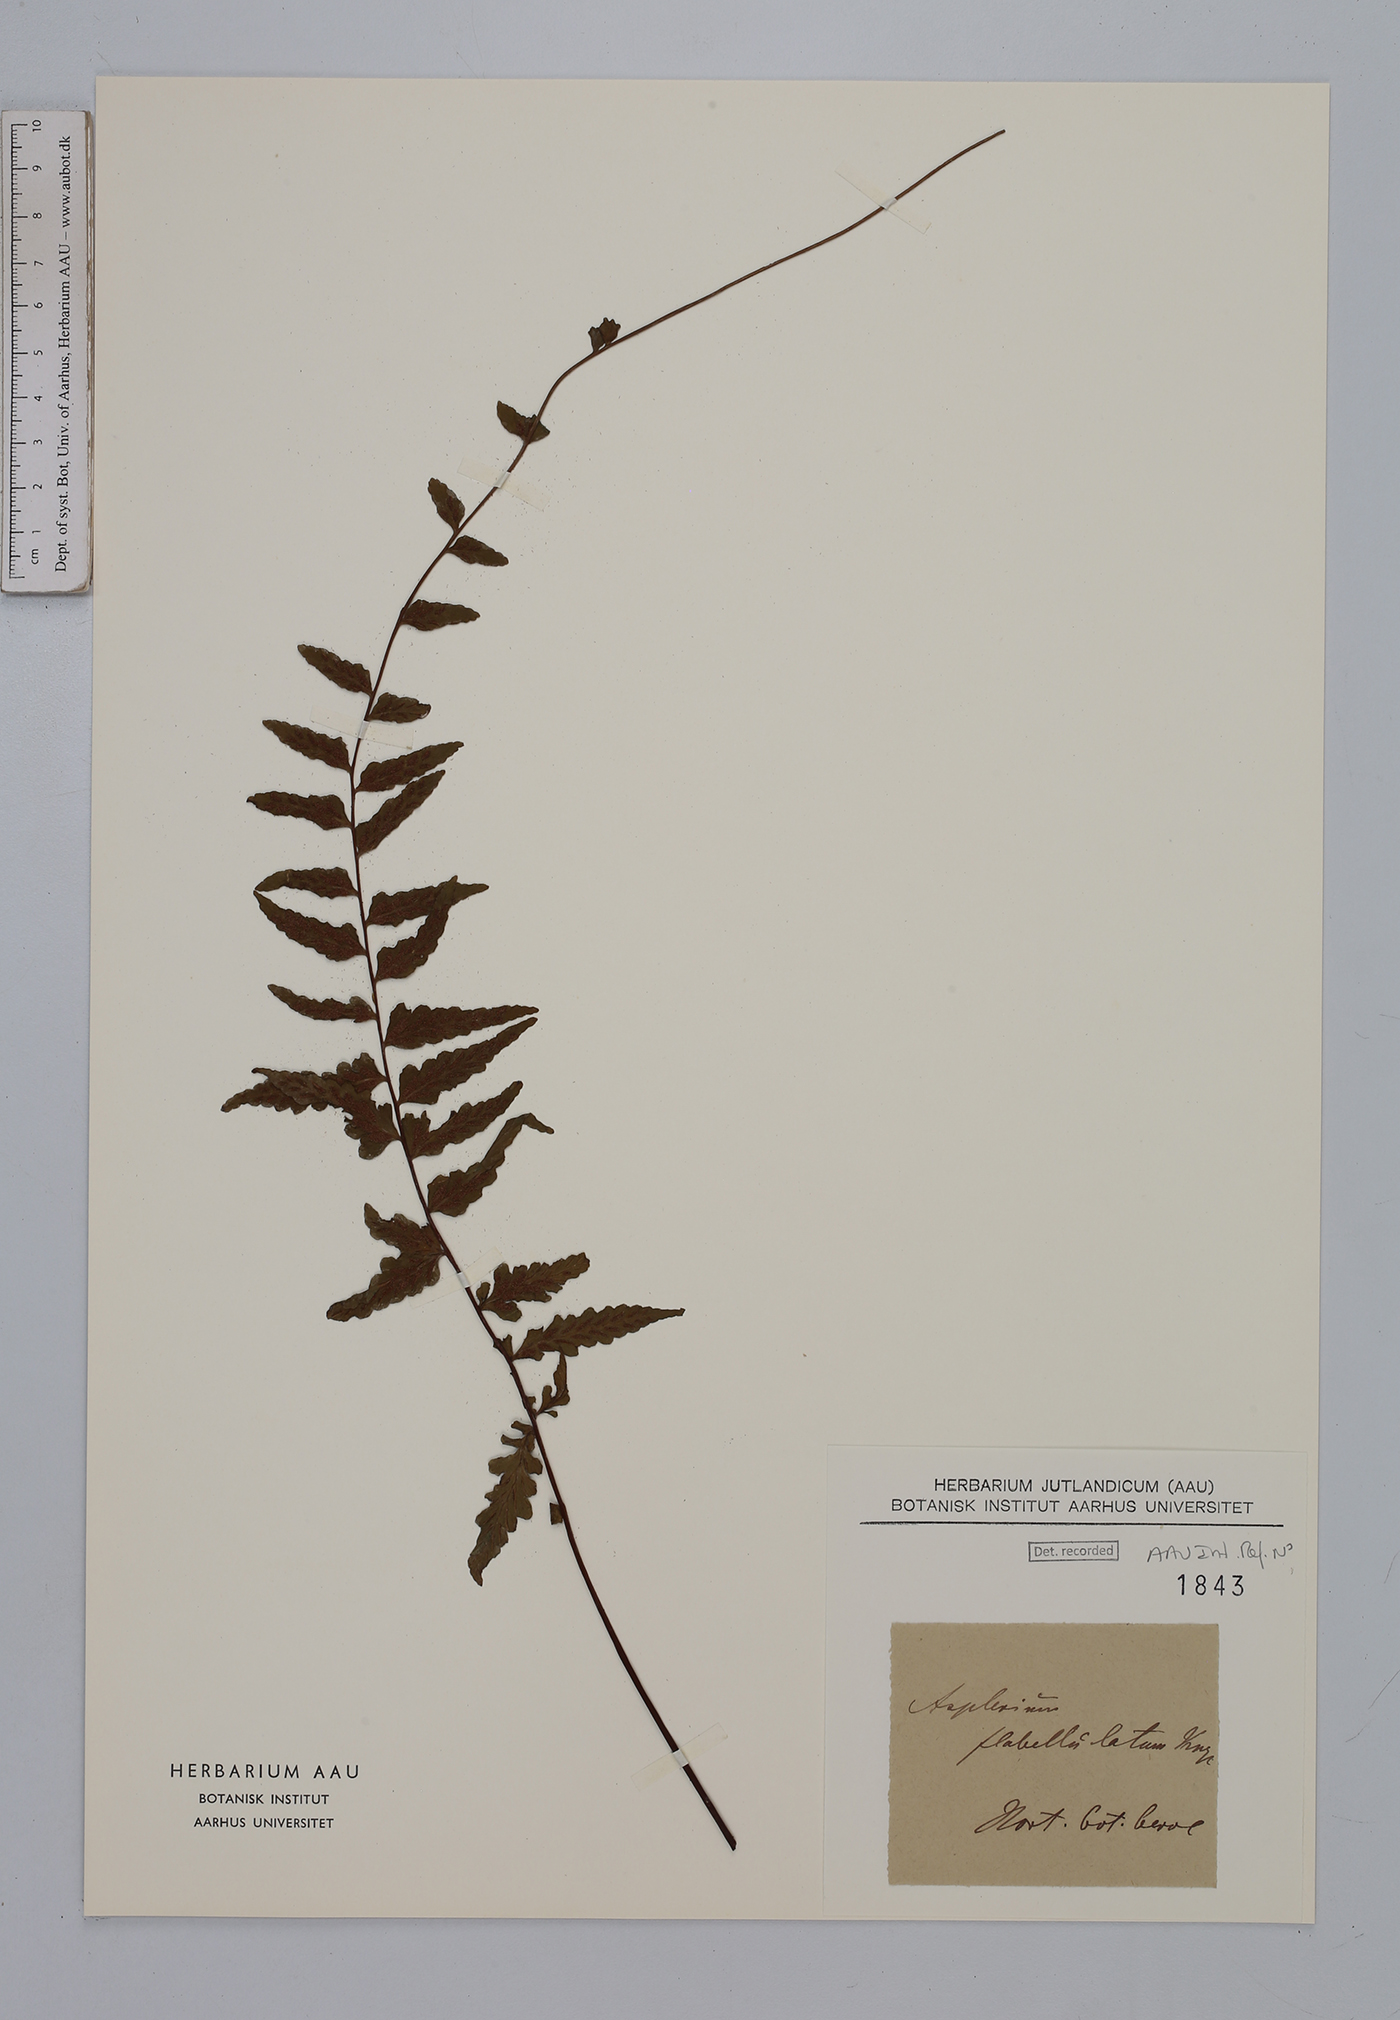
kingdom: Plantae
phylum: Tracheophyta
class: Polypodiopsida
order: Polypodiales
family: Aspleniaceae
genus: Asplenium
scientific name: Asplenium flabellulatum
